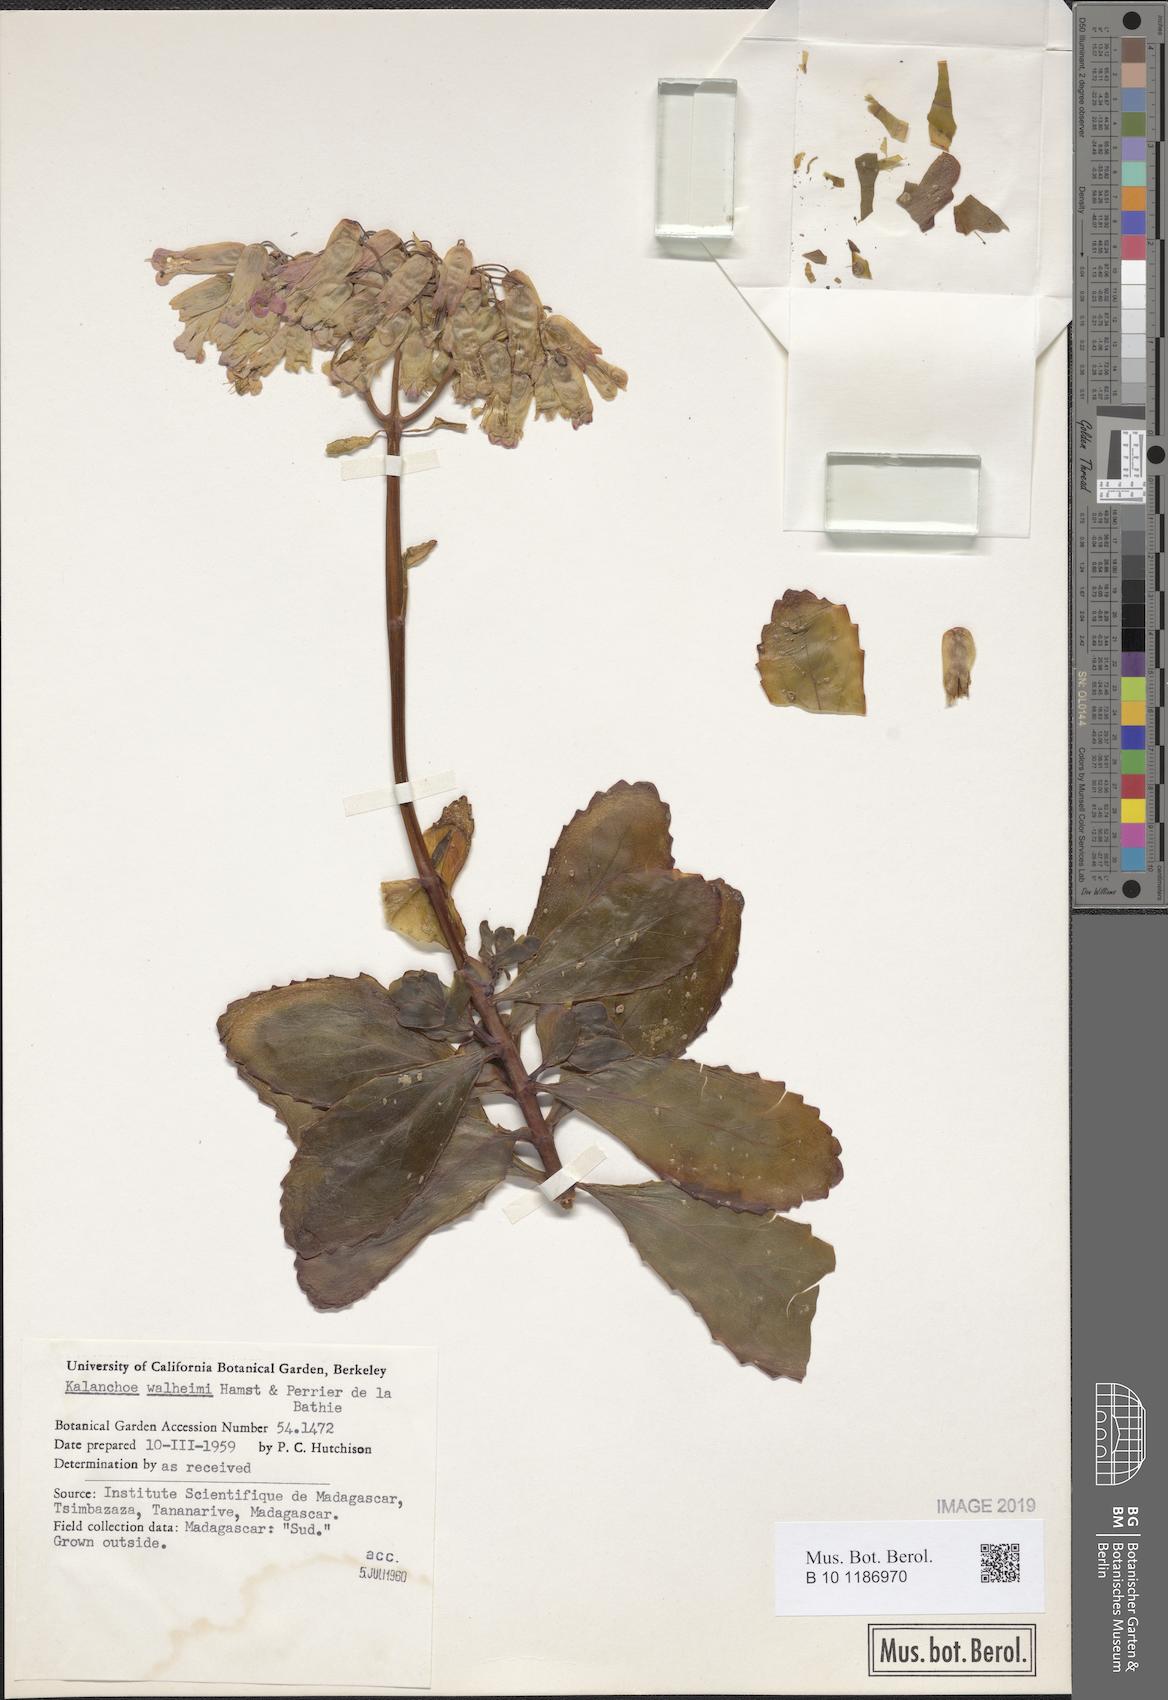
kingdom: Plantae
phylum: Tracheophyta
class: Magnoliopsida
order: Saxifragales
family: Crassulaceae
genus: Kalanchoe
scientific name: Kalanchoe waldheimii
